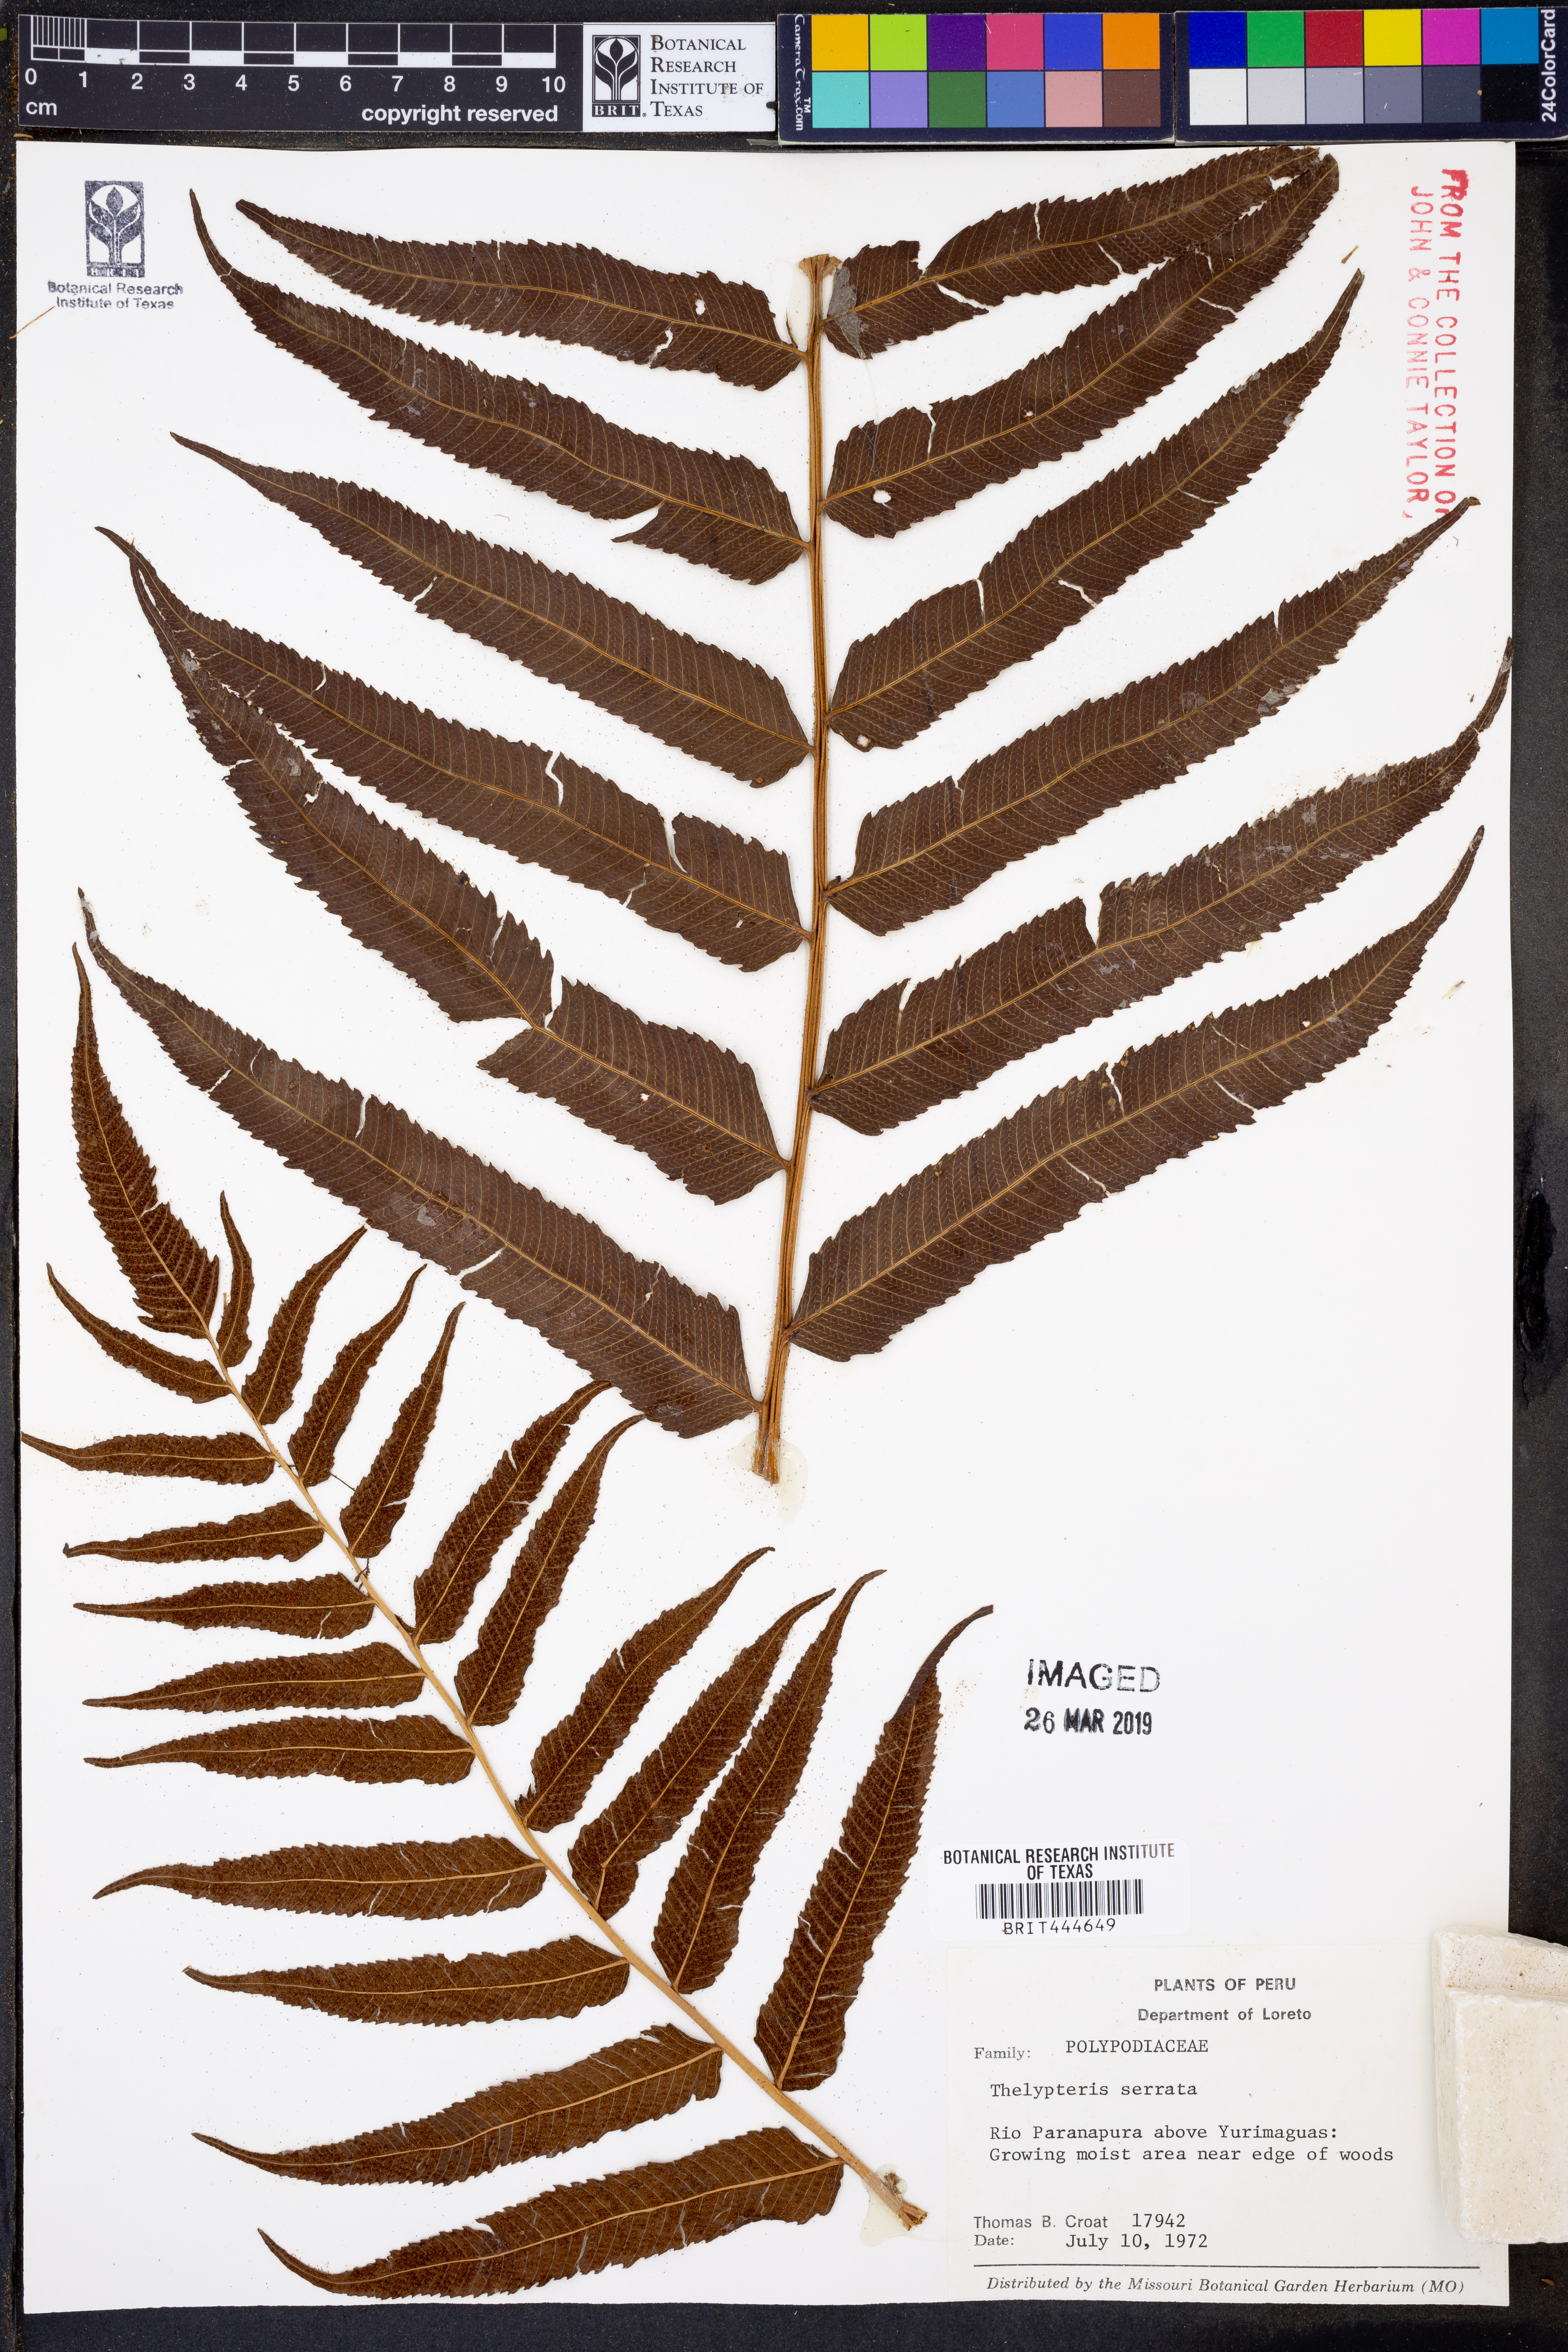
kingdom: Plantae
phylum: Tracheophyta
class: Polypodiopsida
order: Polypodiales
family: Thelypteridaceae
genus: Meniscium
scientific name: Meniscium serratum
